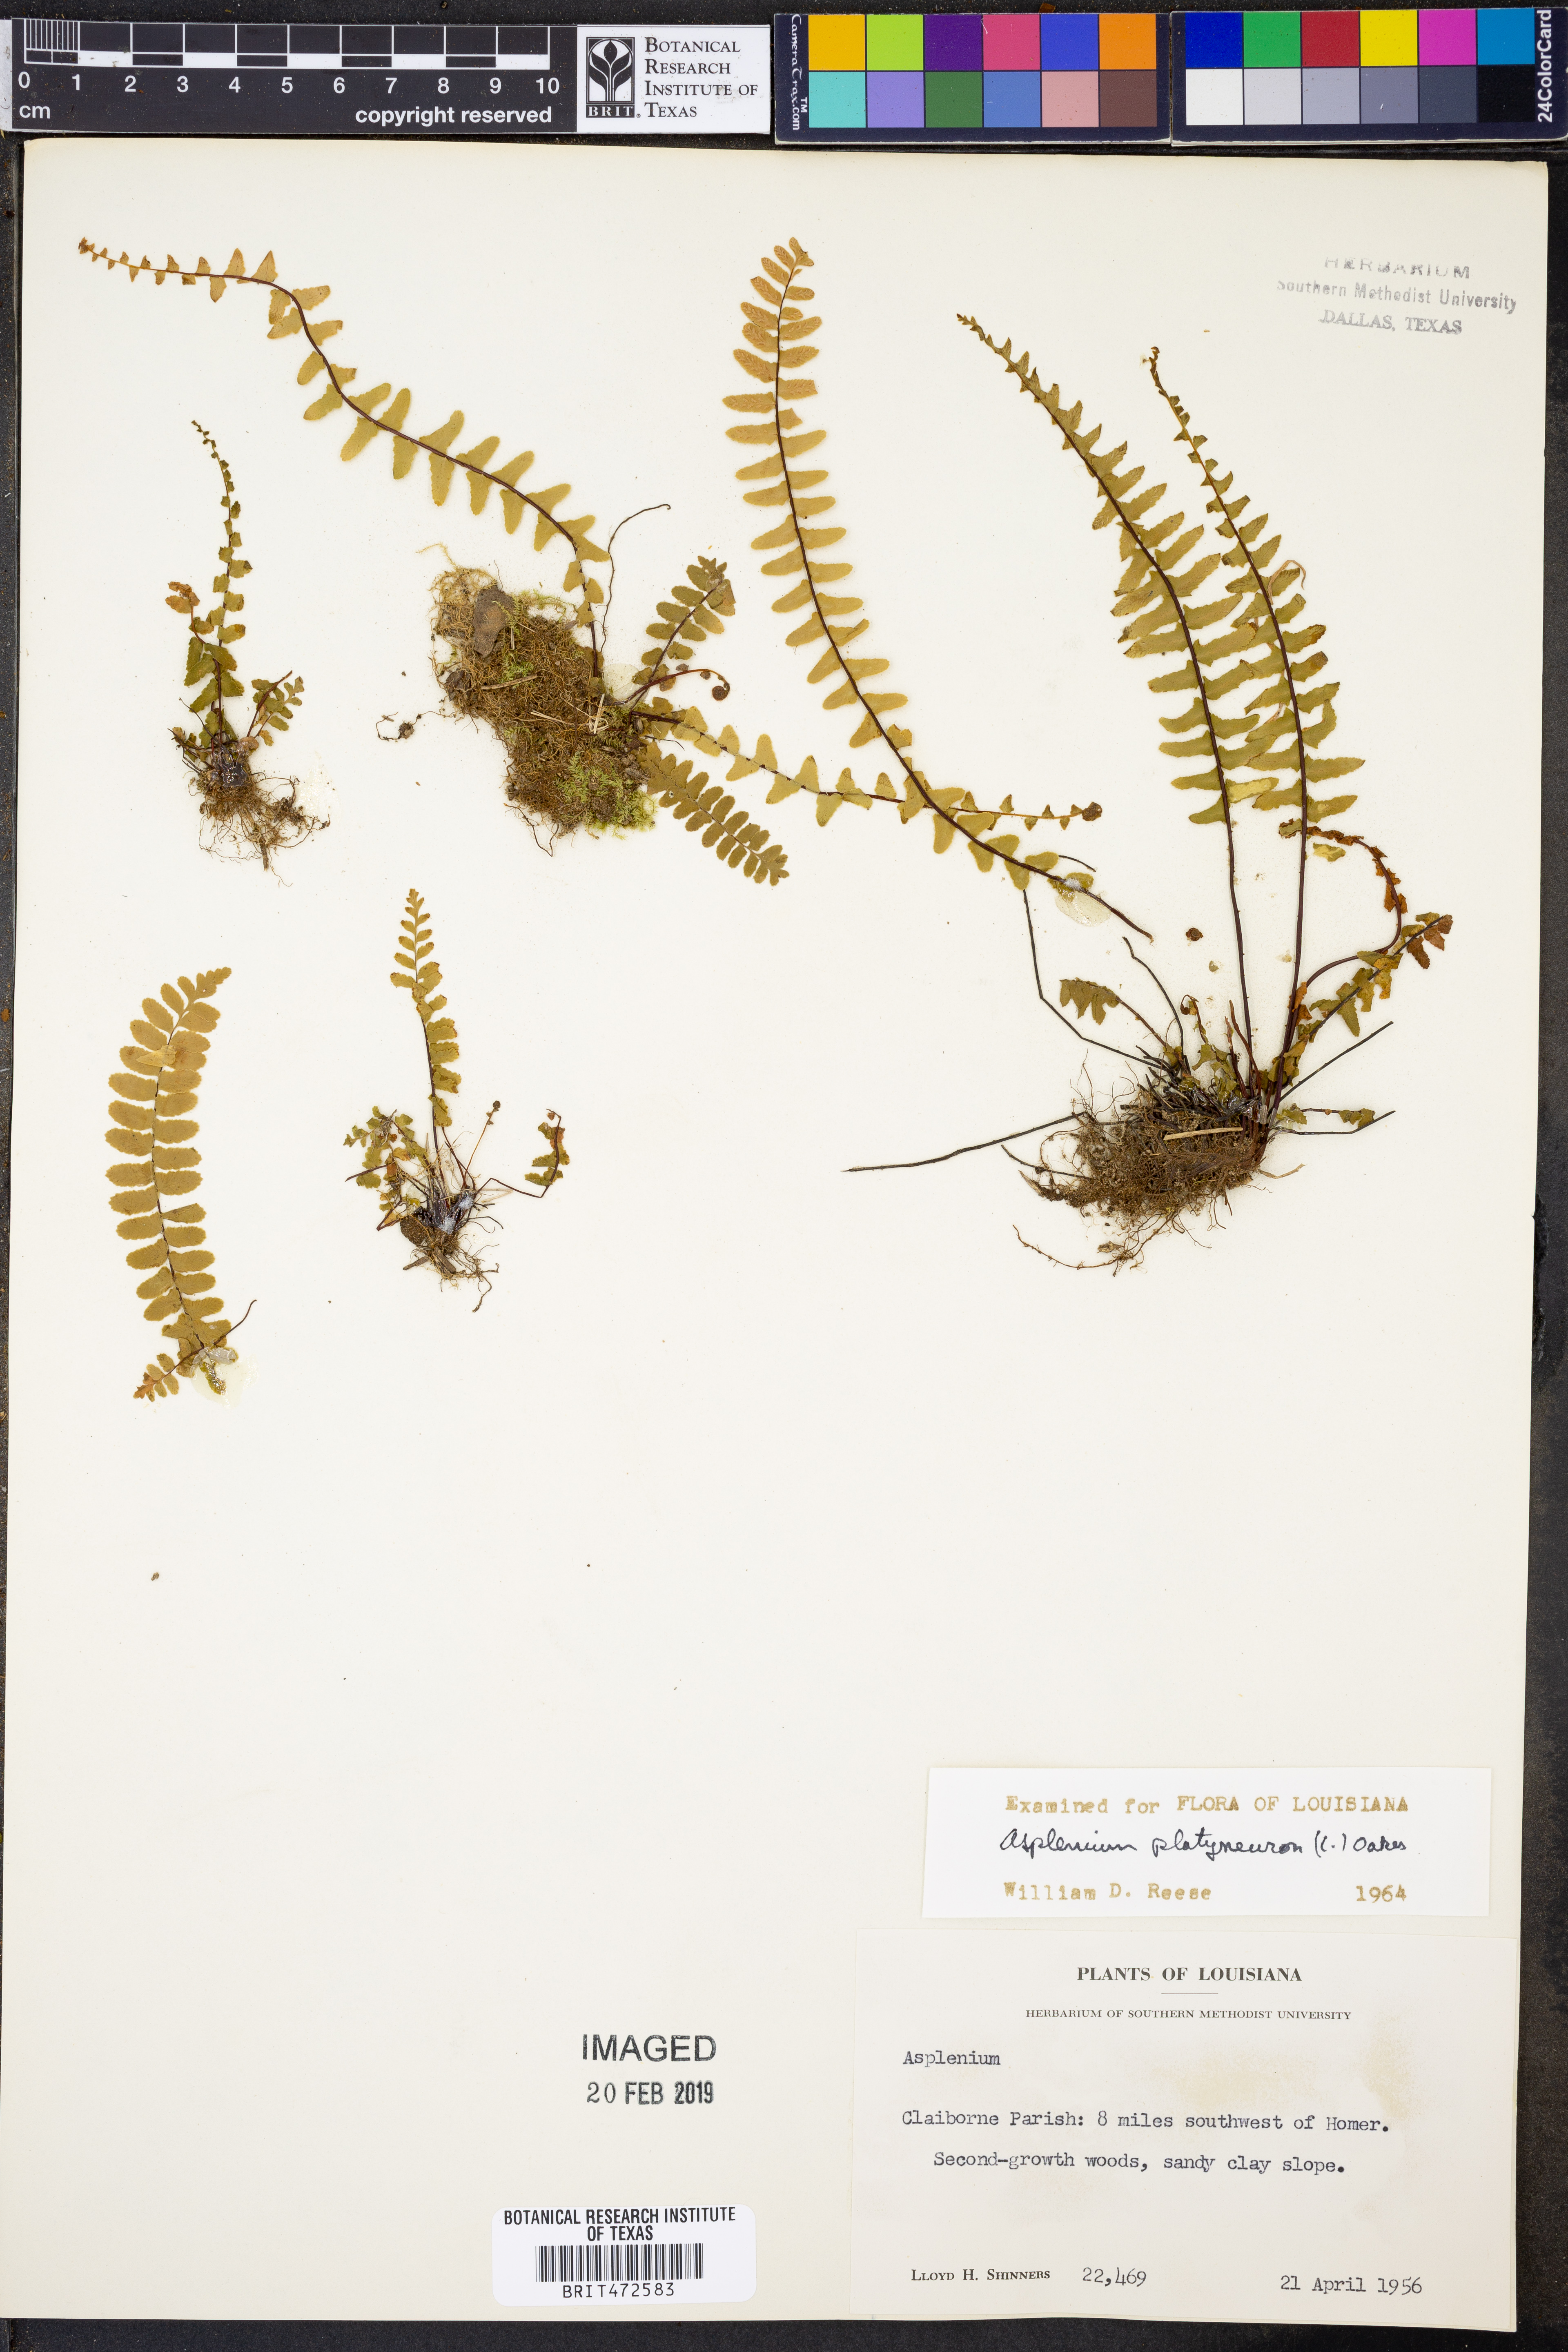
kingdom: Plantae
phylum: Tracheophyta
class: Polypodiopsida
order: Polypodiales
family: Aspleniaceae
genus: Asplenium
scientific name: Asplenium platyneuron
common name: Ebony spleenwort
